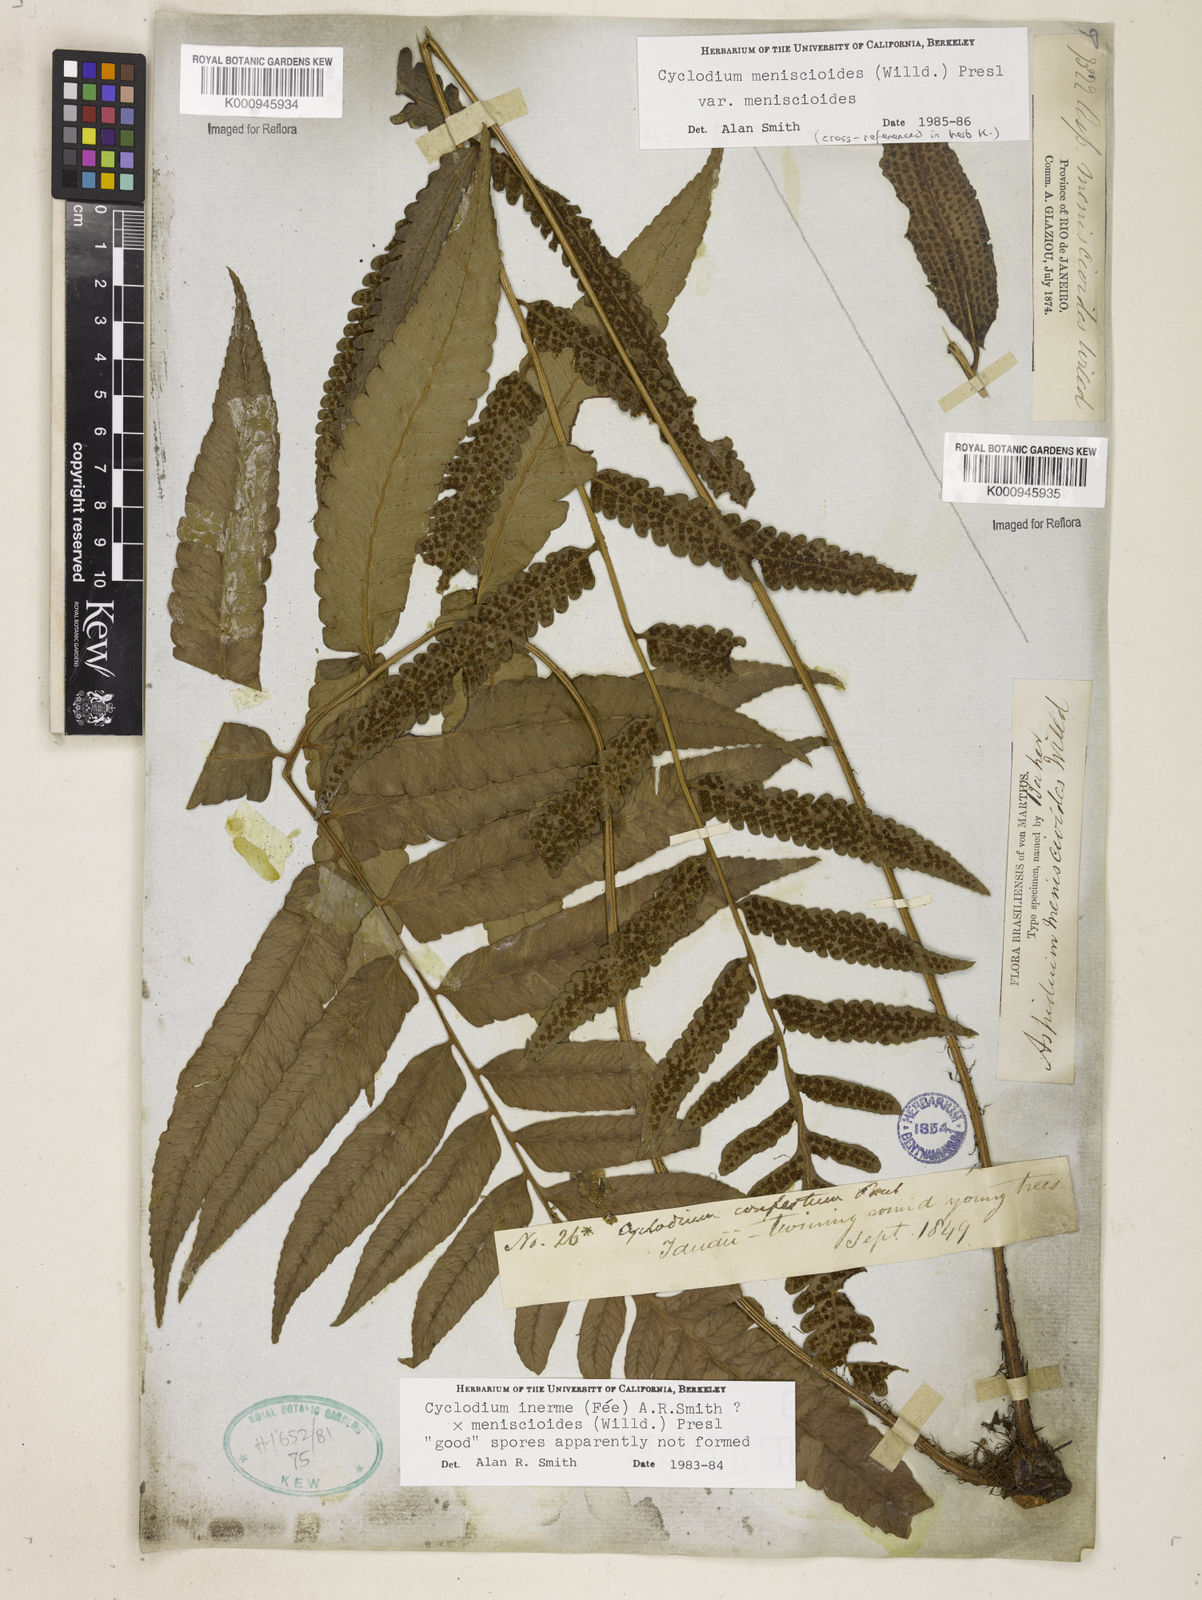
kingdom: Plantae
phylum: Tracheophyta
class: Polypodiopsida
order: Polypodiales
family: Dryopteridaceae
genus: Cyclodium
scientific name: Cyclodium inerme
